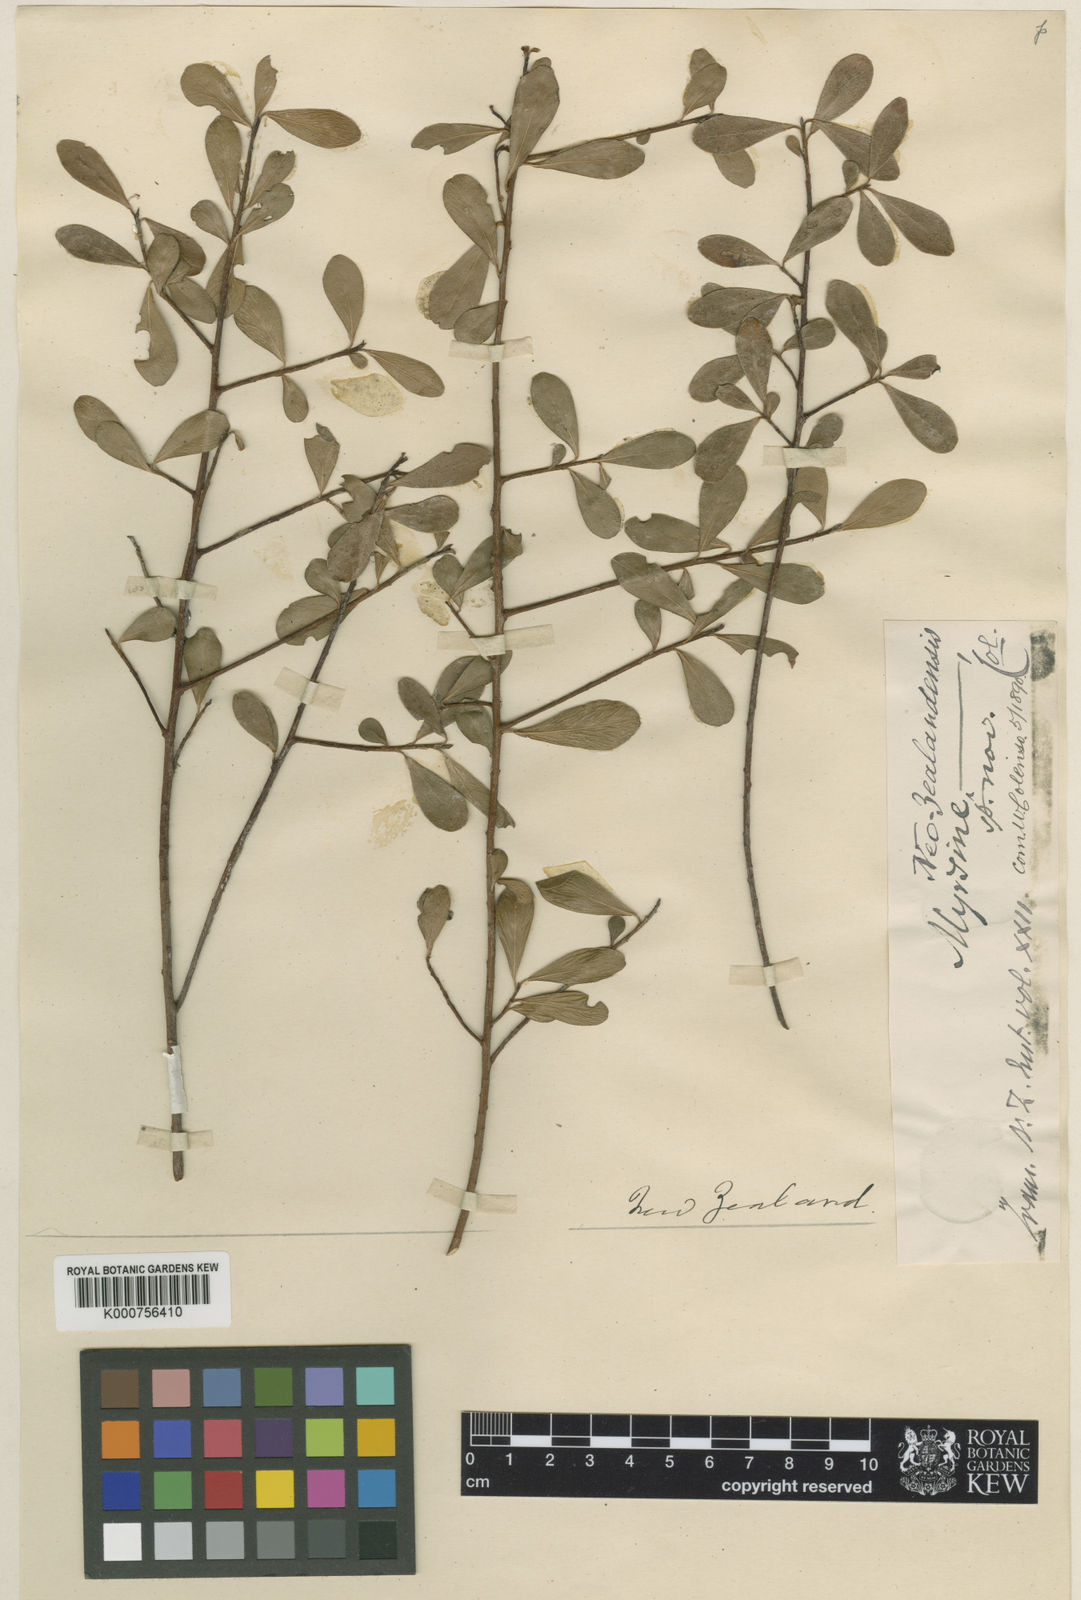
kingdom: Plantae
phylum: Tracheophyta
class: Magnoliopsida
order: Ericales
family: Primulaceae
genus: Myrsine
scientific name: Myrsine montana
